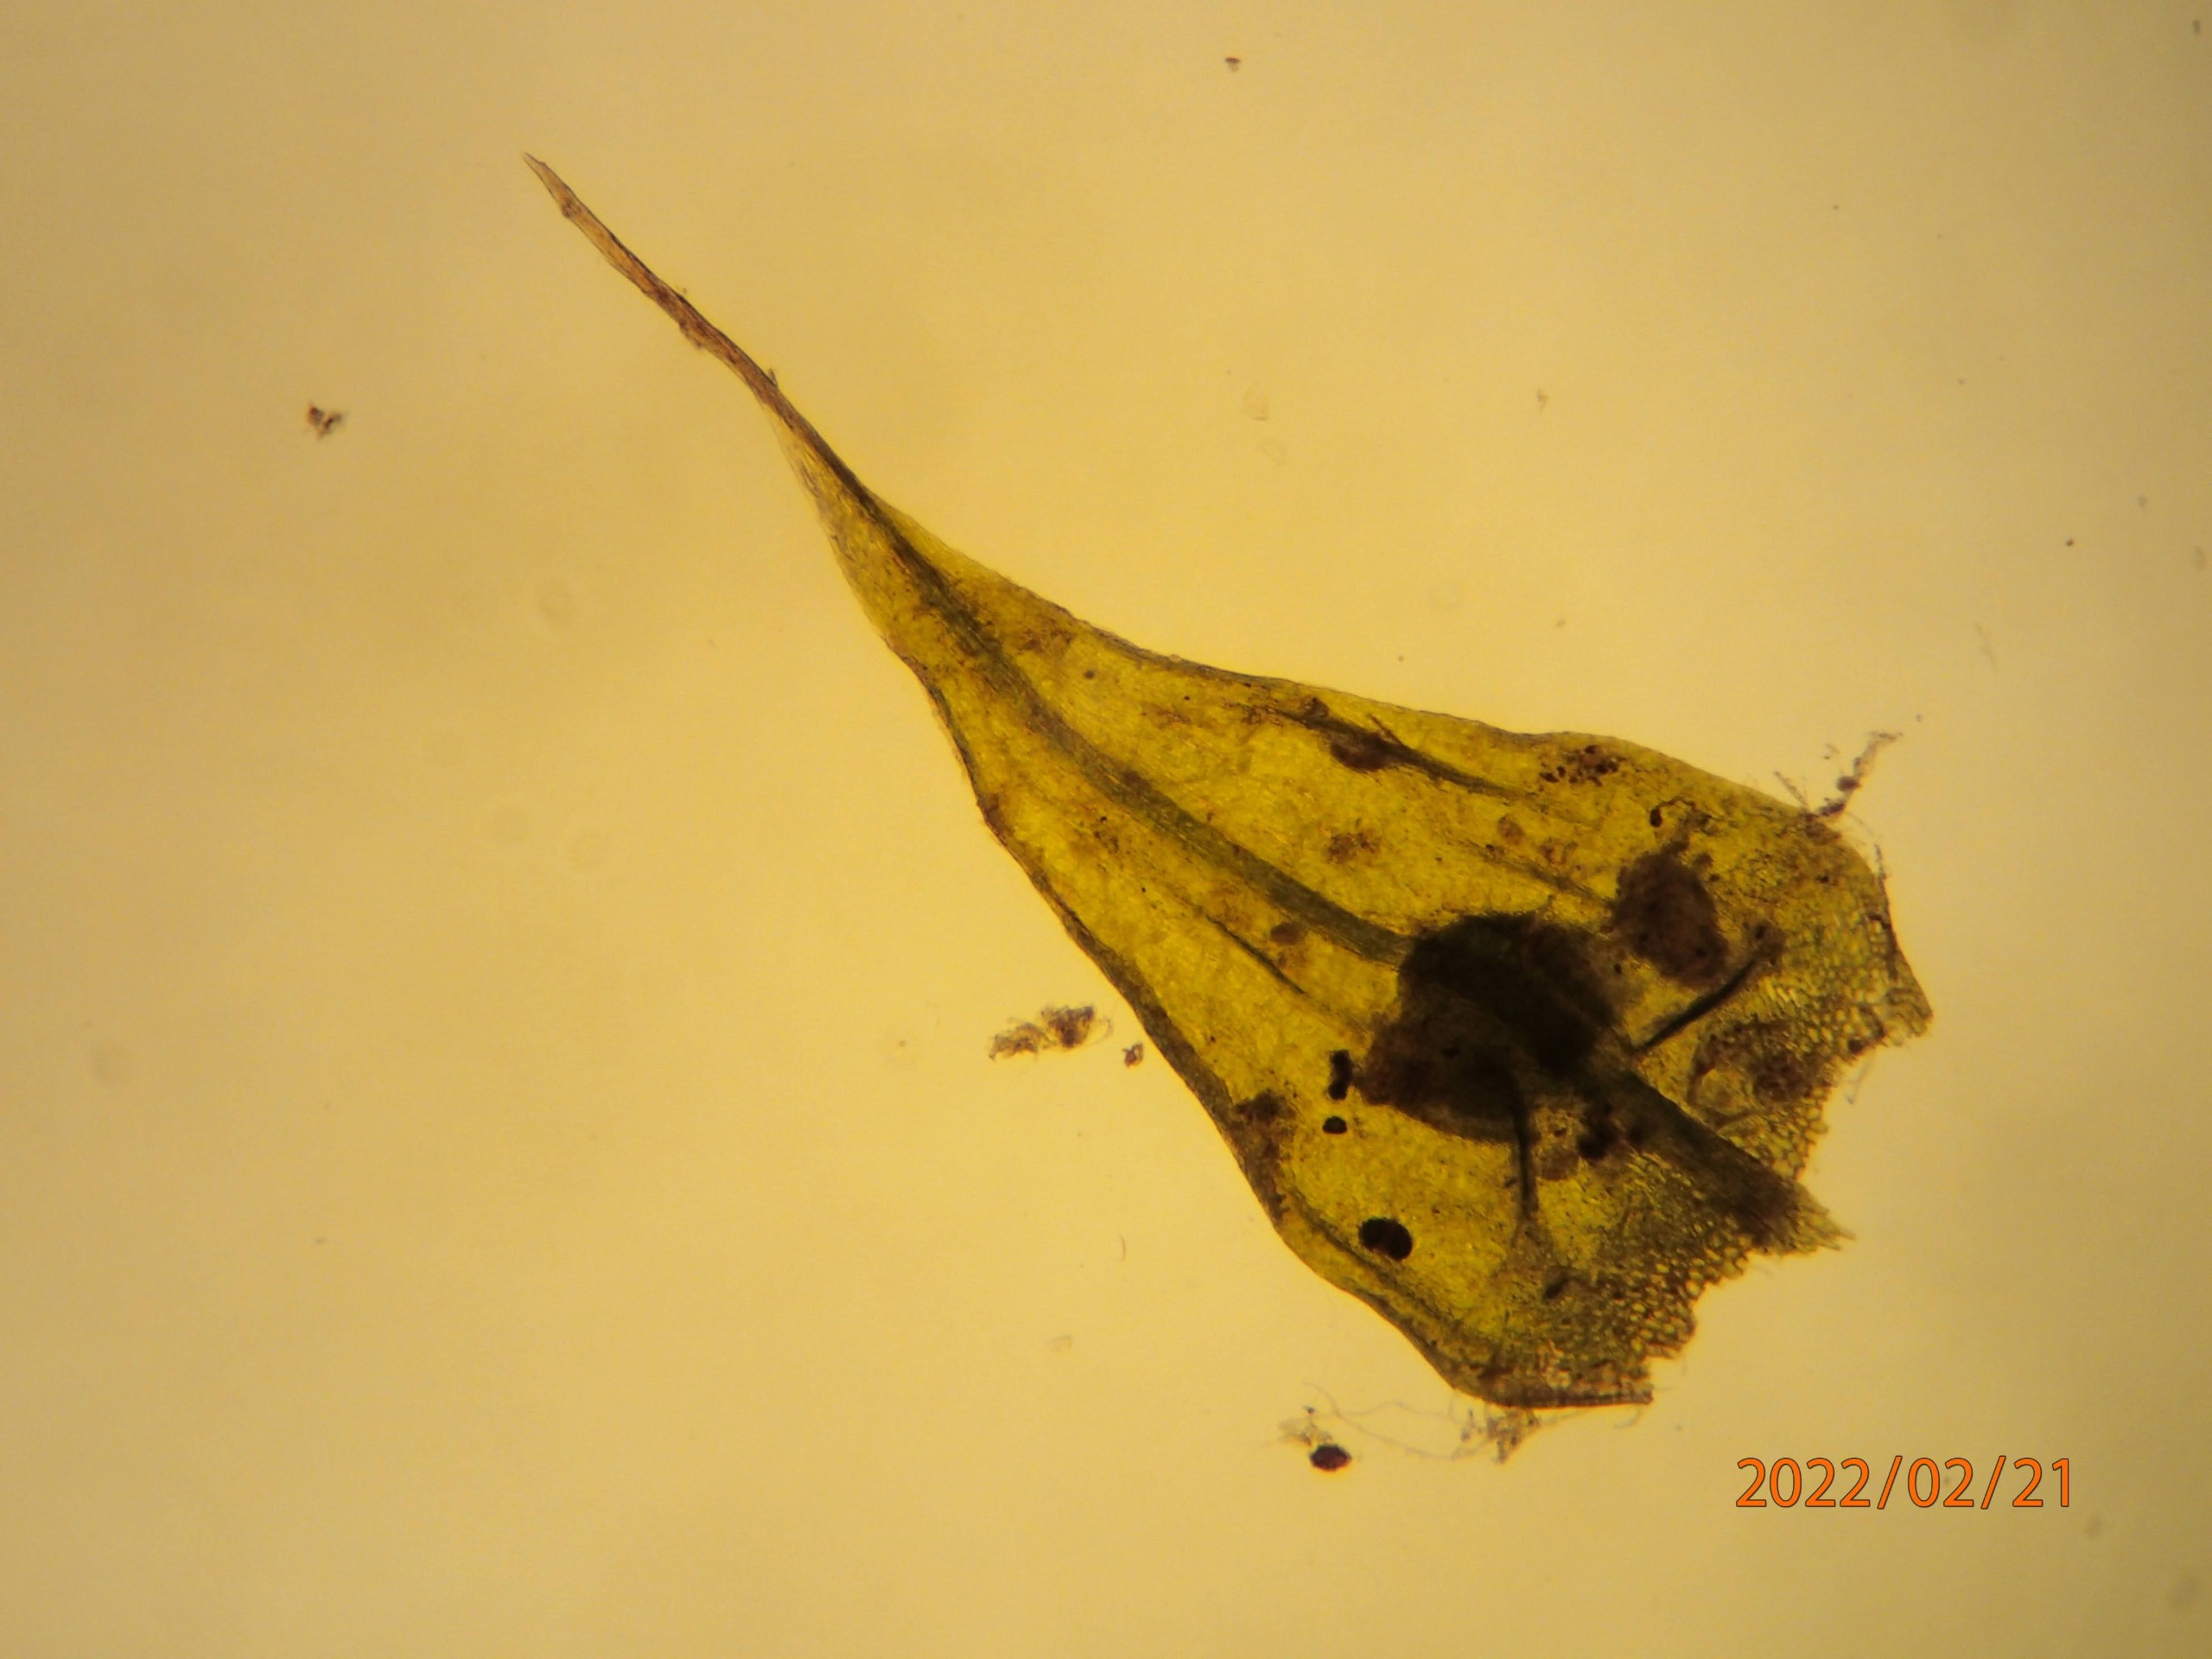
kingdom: Plantae
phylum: Bryophyta
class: Bryopsida
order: Hypnales
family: Brachytheciaceae
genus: Sciuro-hypnum
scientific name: Sciuro-hypnum populeum
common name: Park-kortkapsel
